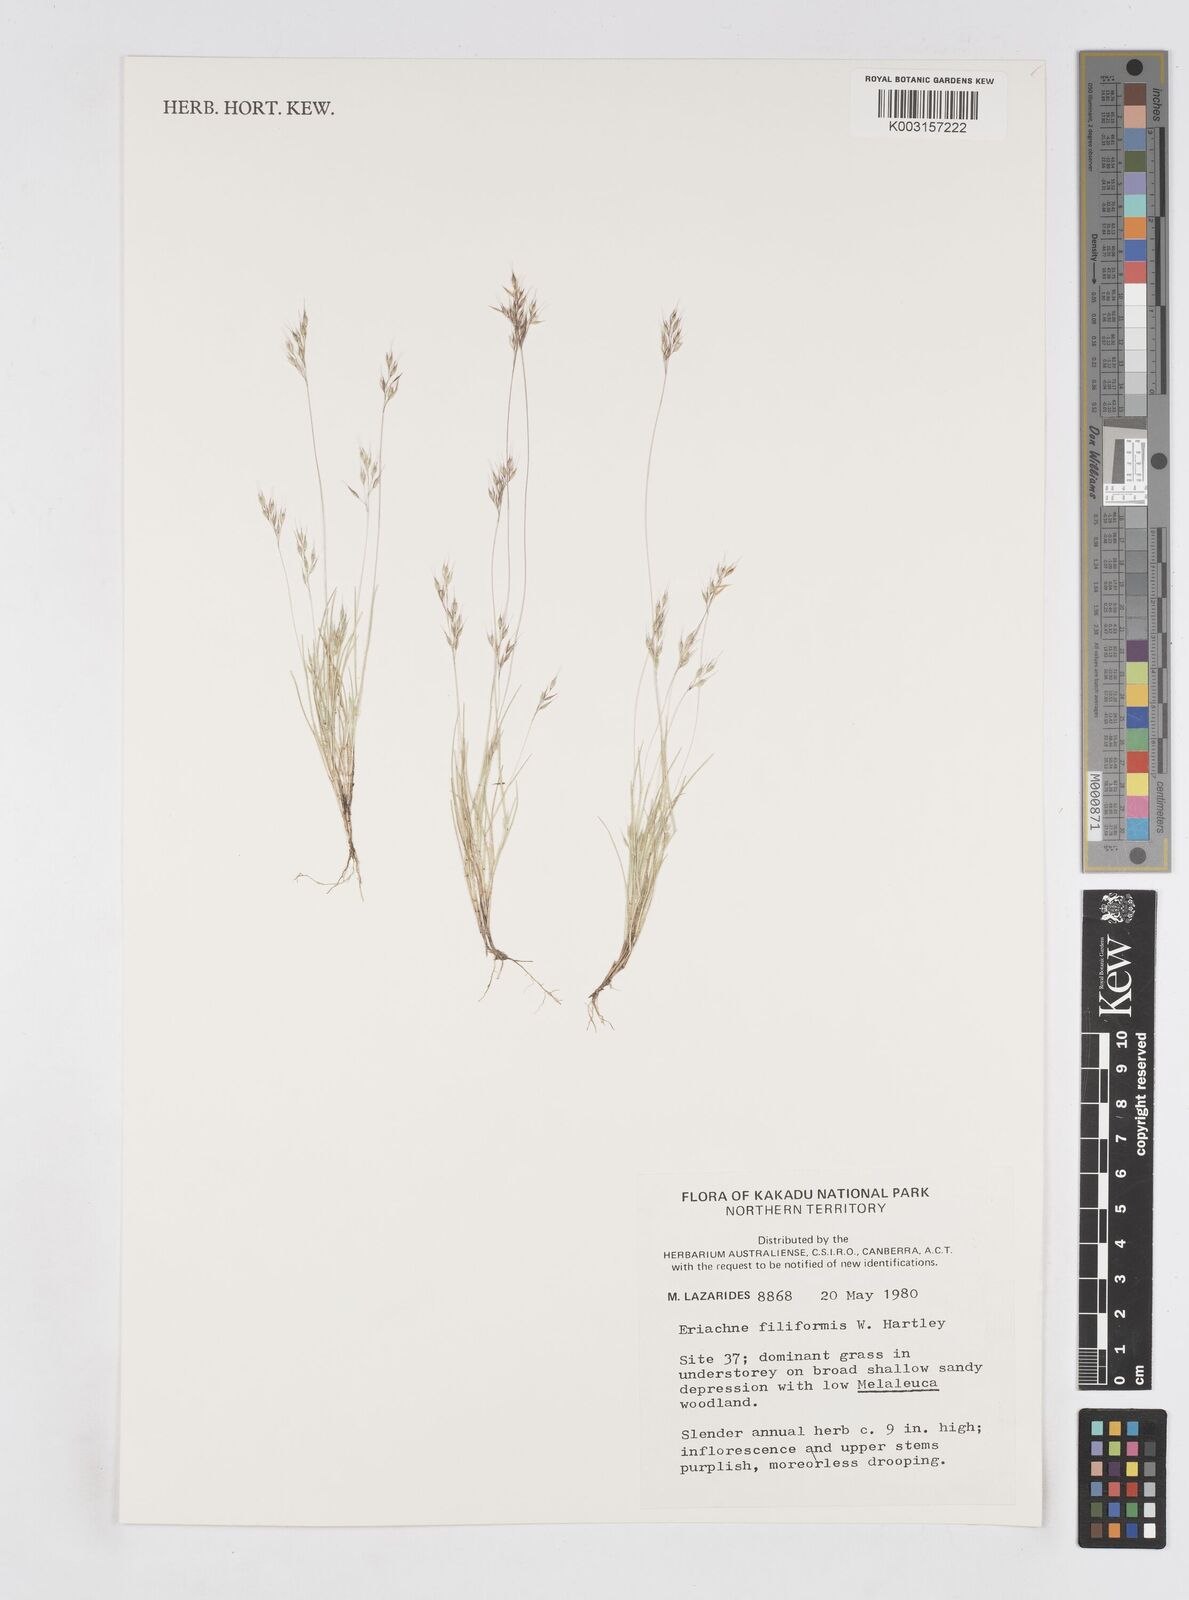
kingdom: Plantae
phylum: Tracheophyta
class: Liliopsida
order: Poales
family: Poaceae
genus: Eriachne
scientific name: Eriachne filiformis
